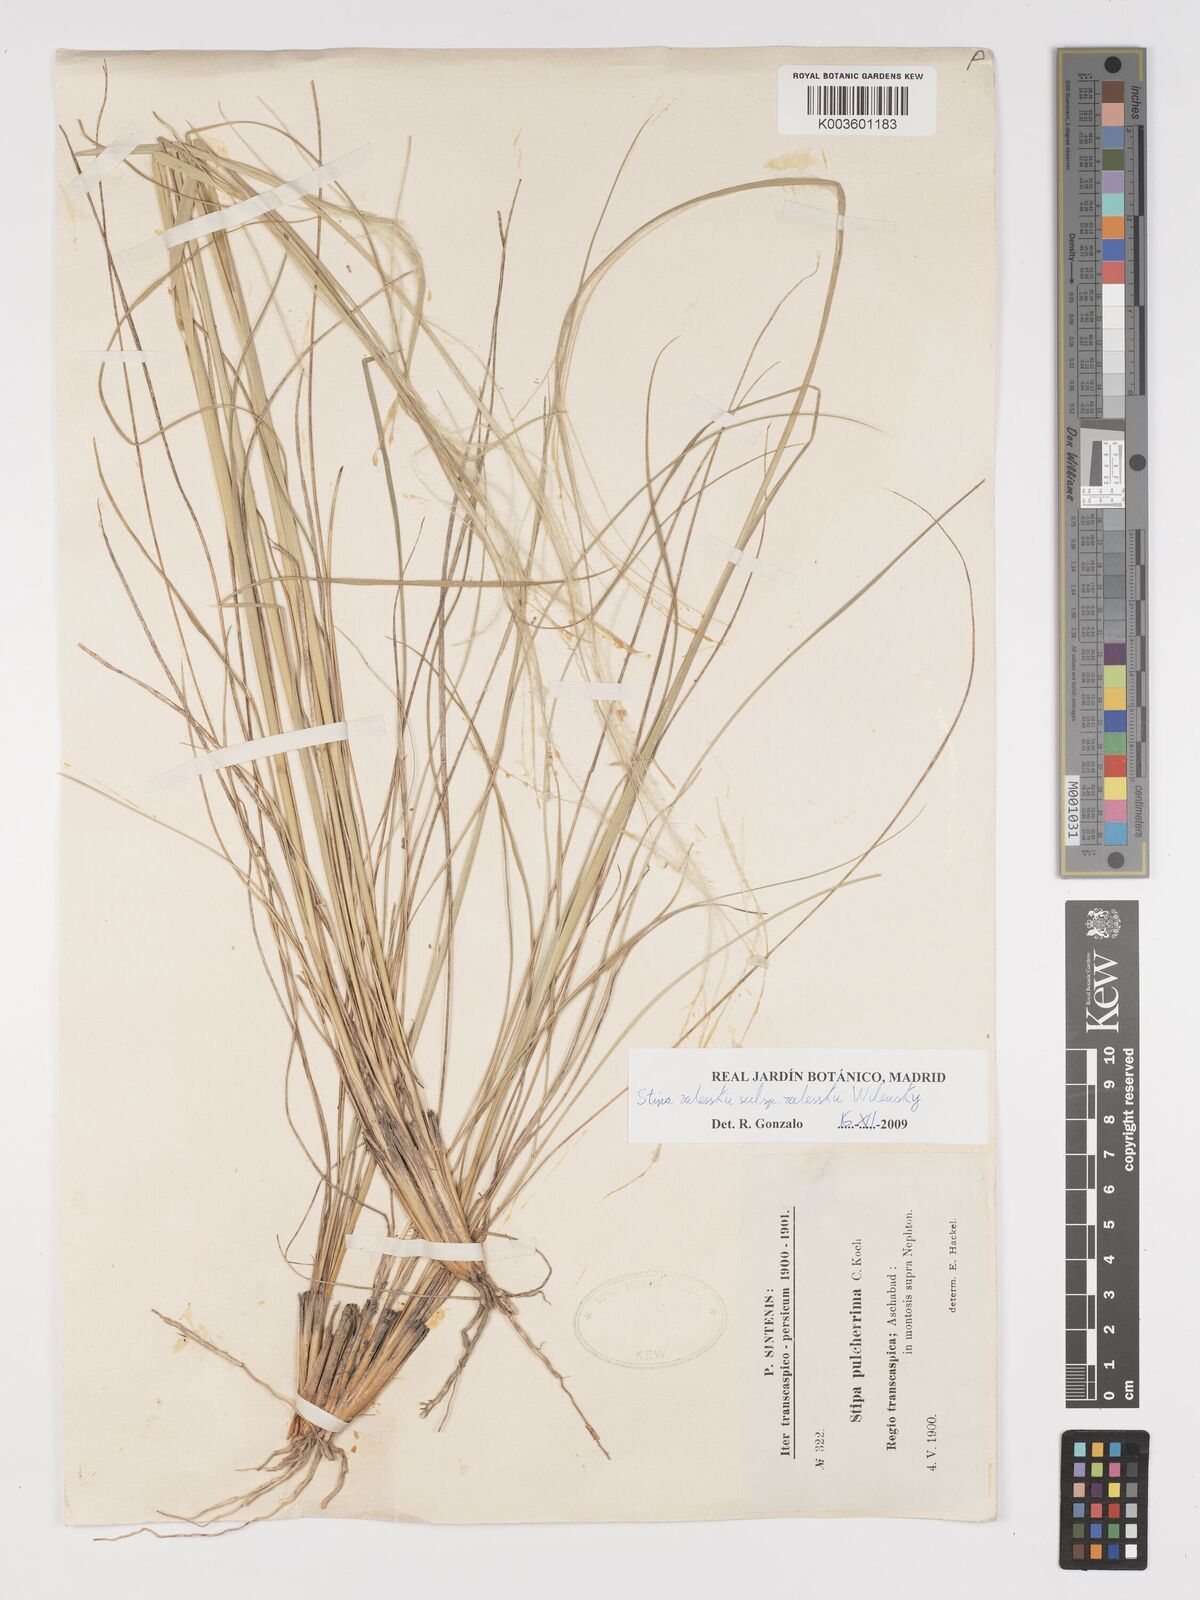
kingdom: Plantae
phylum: Tracheophyta
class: Liliopsida
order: Poales
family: Poaceae
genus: Stipa
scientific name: Stipa
